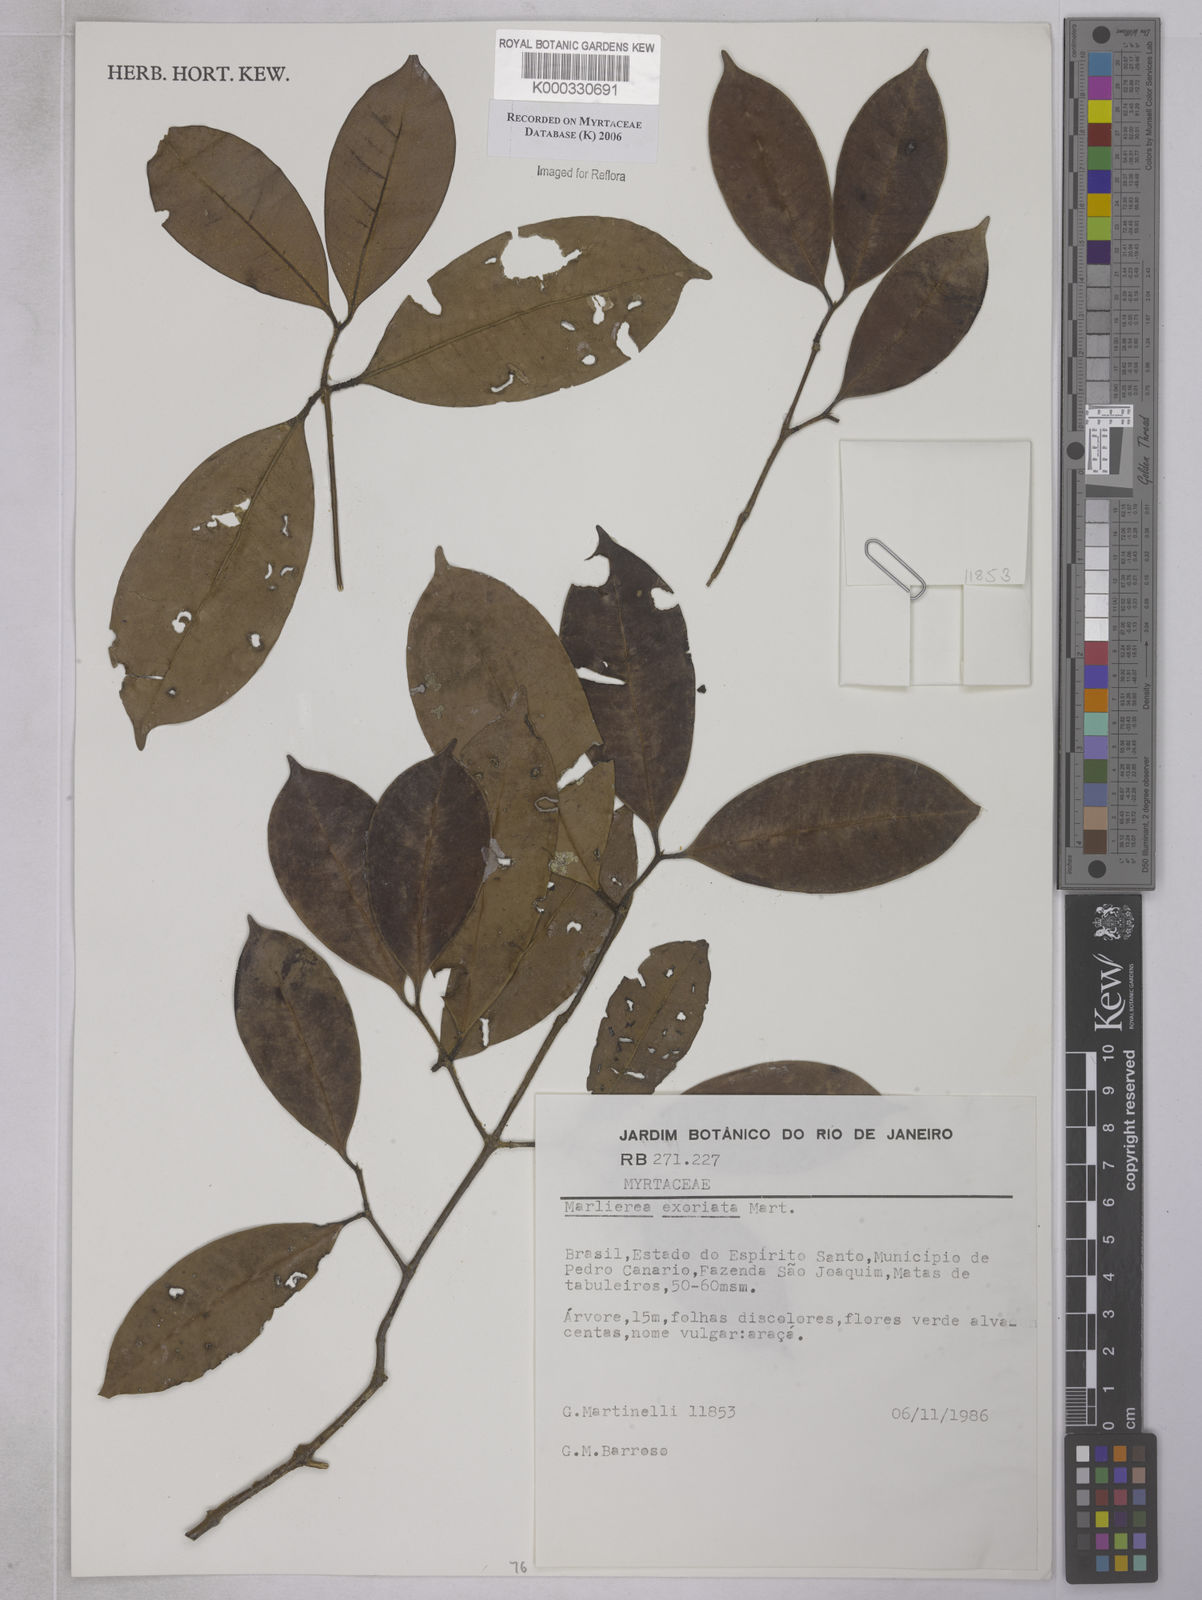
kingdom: Plantae
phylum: Tracheophyta
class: Magnoliopsida
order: Myrtales
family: Myrtaceae
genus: Myrcia
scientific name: Myrcia excoriata
